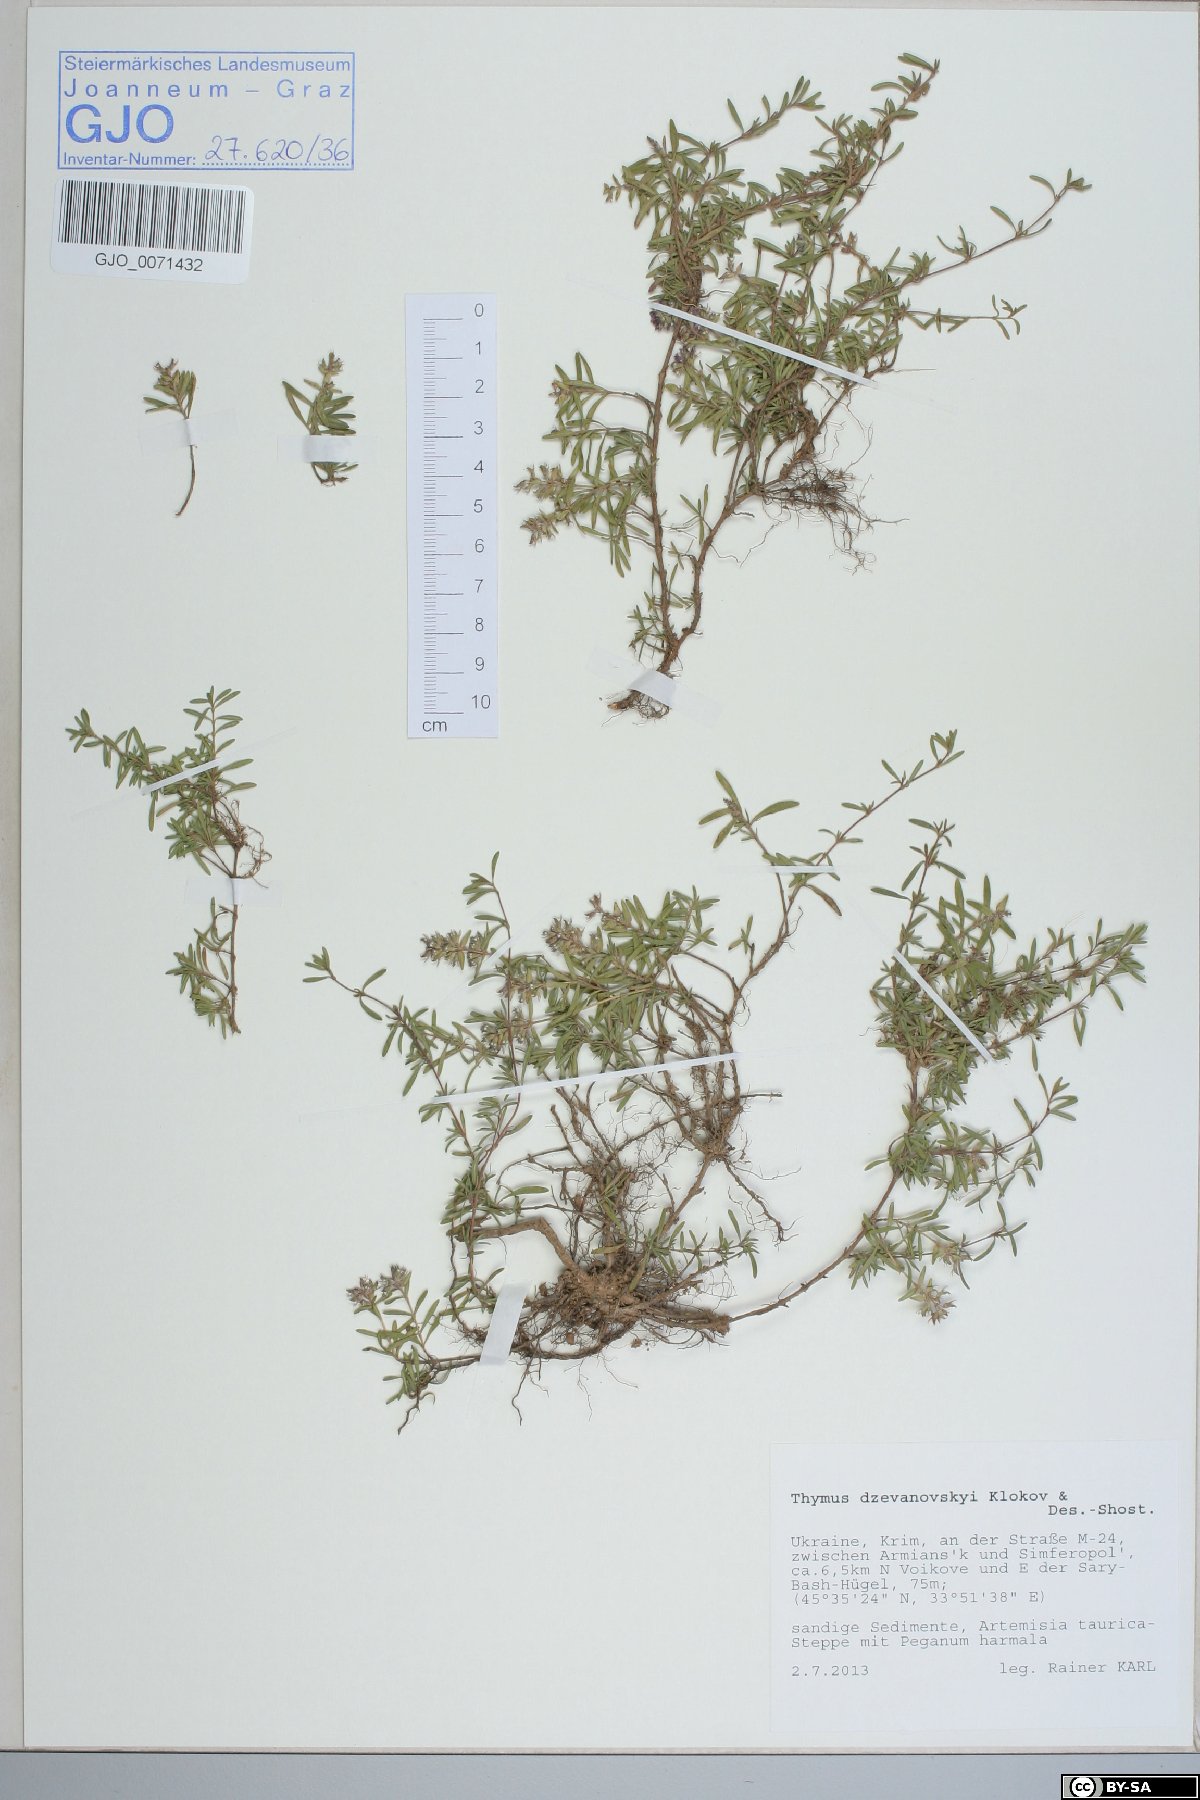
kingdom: Plantae
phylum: Tracheophyta
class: Magnoliopsida
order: Lamiales
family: Lamiaceae
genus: Thymus
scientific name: Thymus dzevanovskyi
